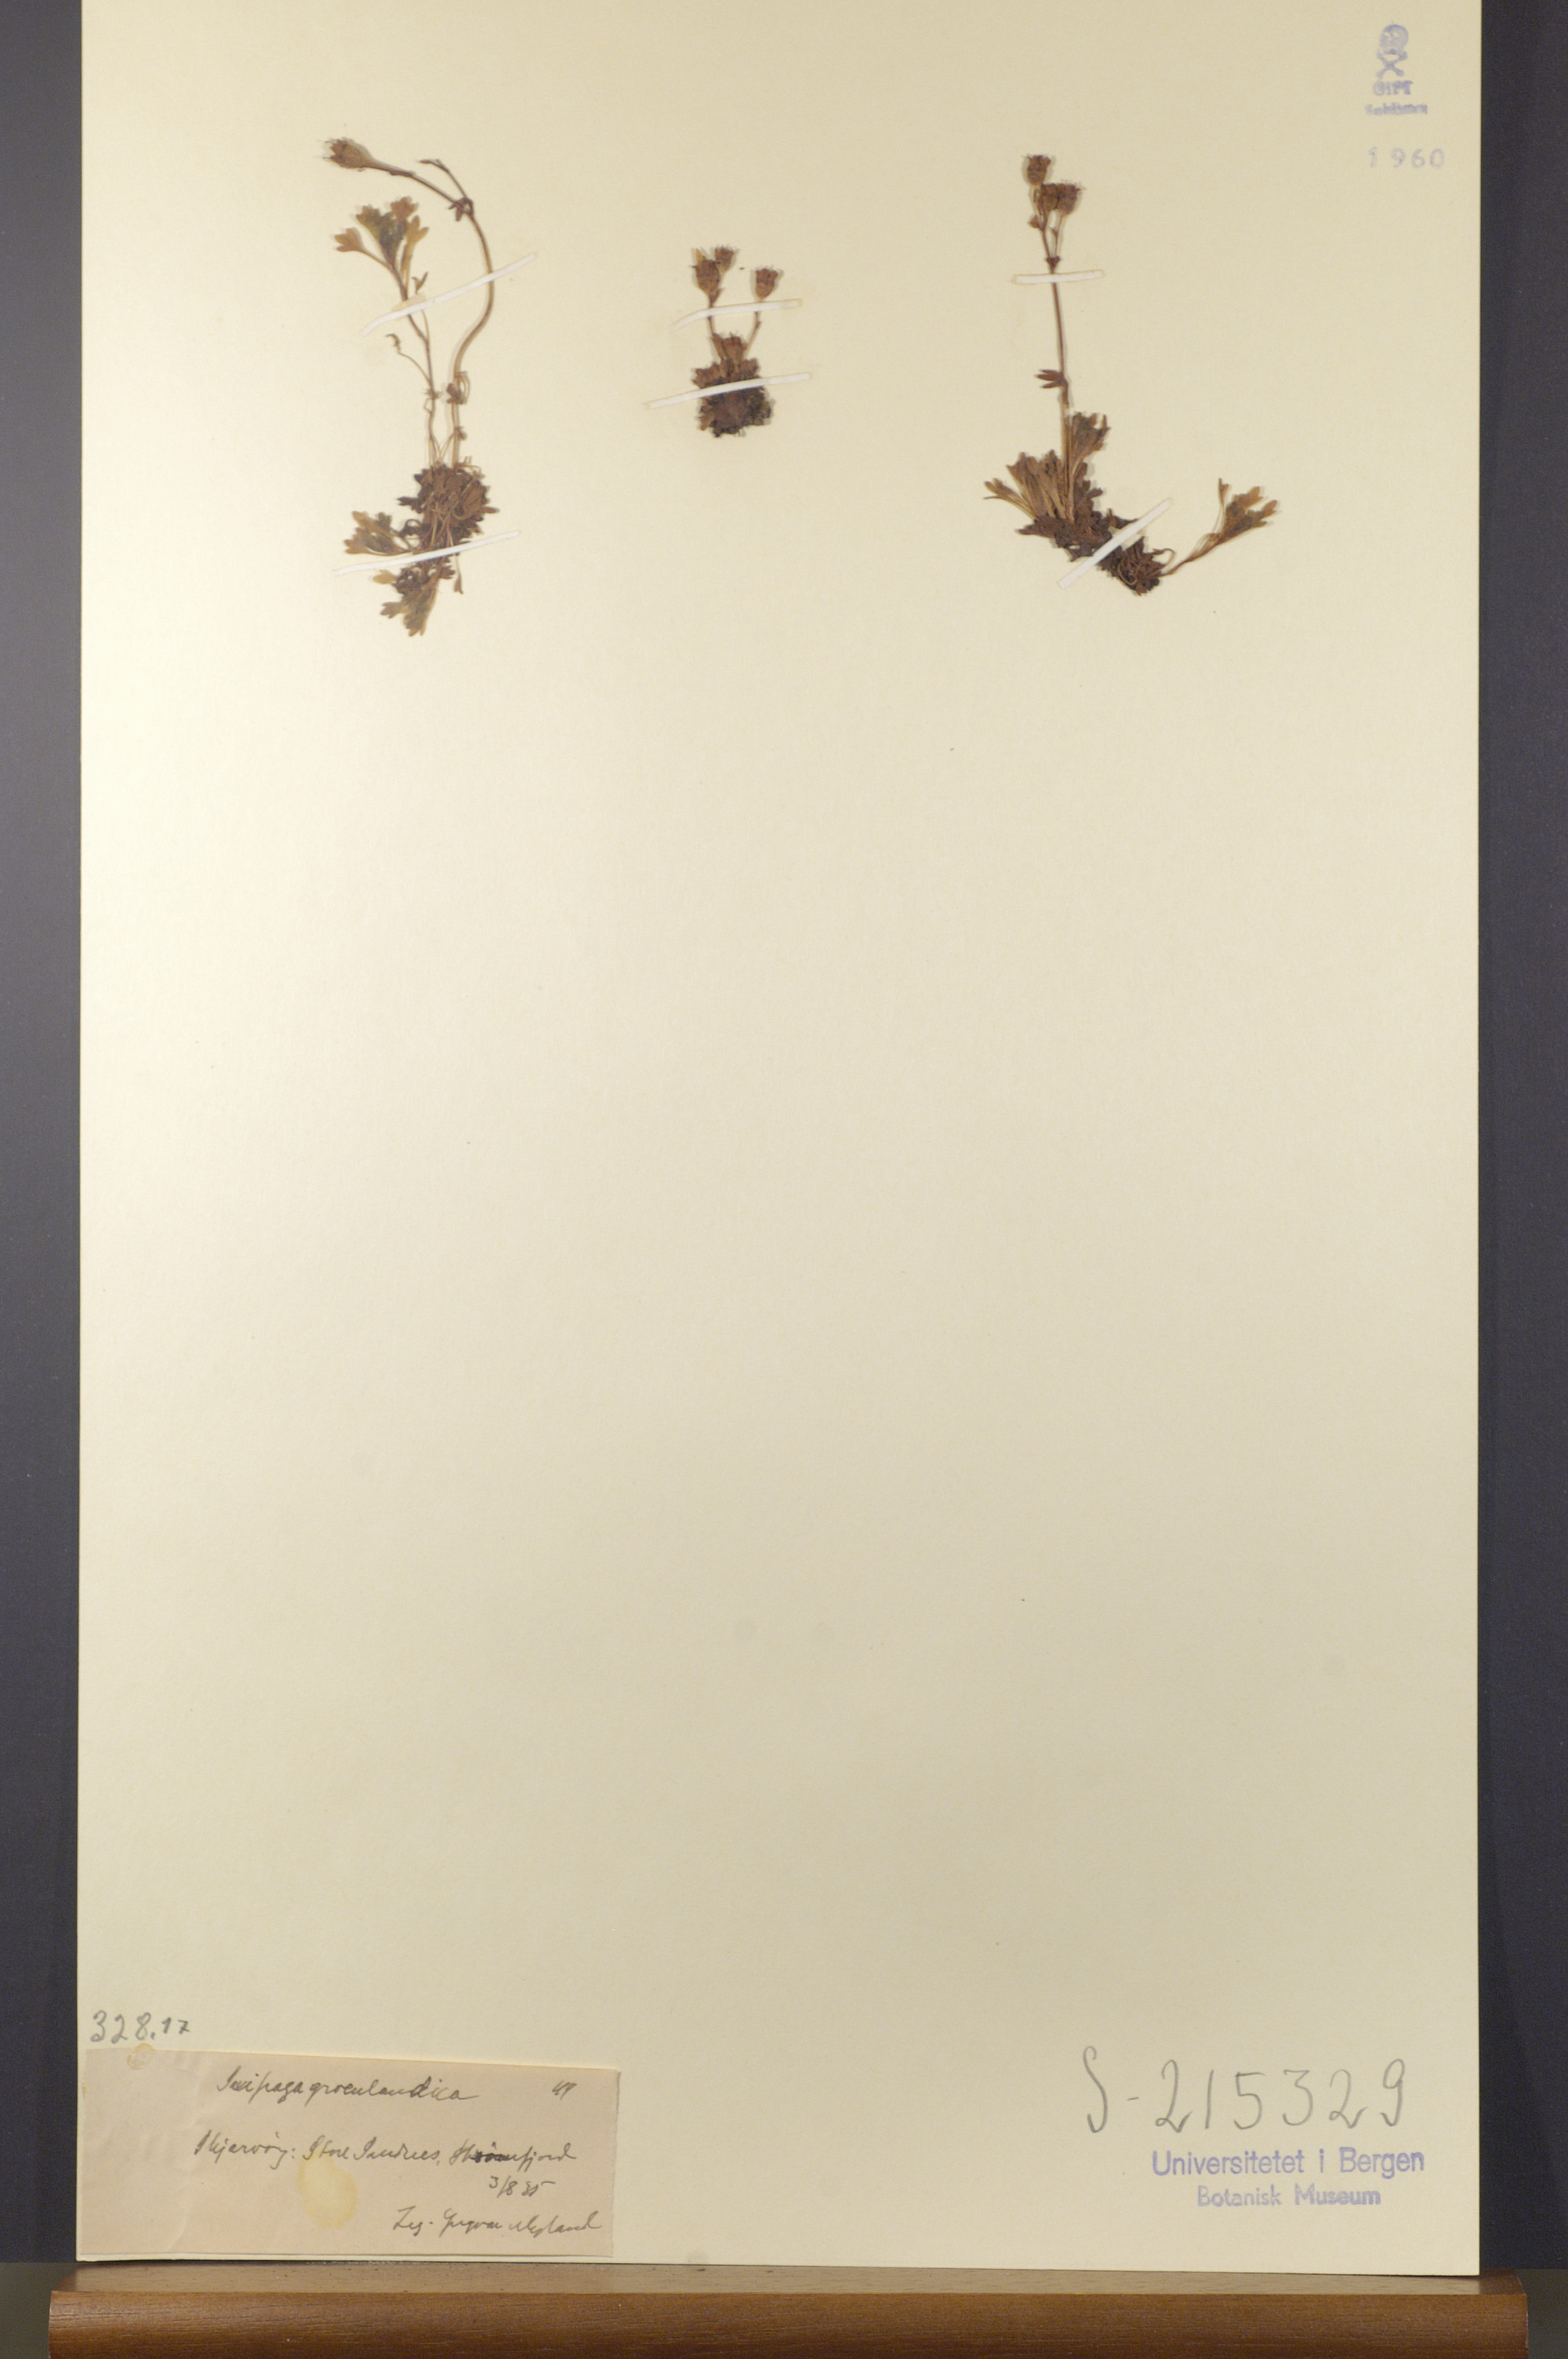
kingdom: Plantae
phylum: Tracheophyta
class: Magnoliopsida
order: Saxifragales
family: Saxifragaceae
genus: Saxifraga
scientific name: Saxifraga cespitosa
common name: Tufted saxifrage
